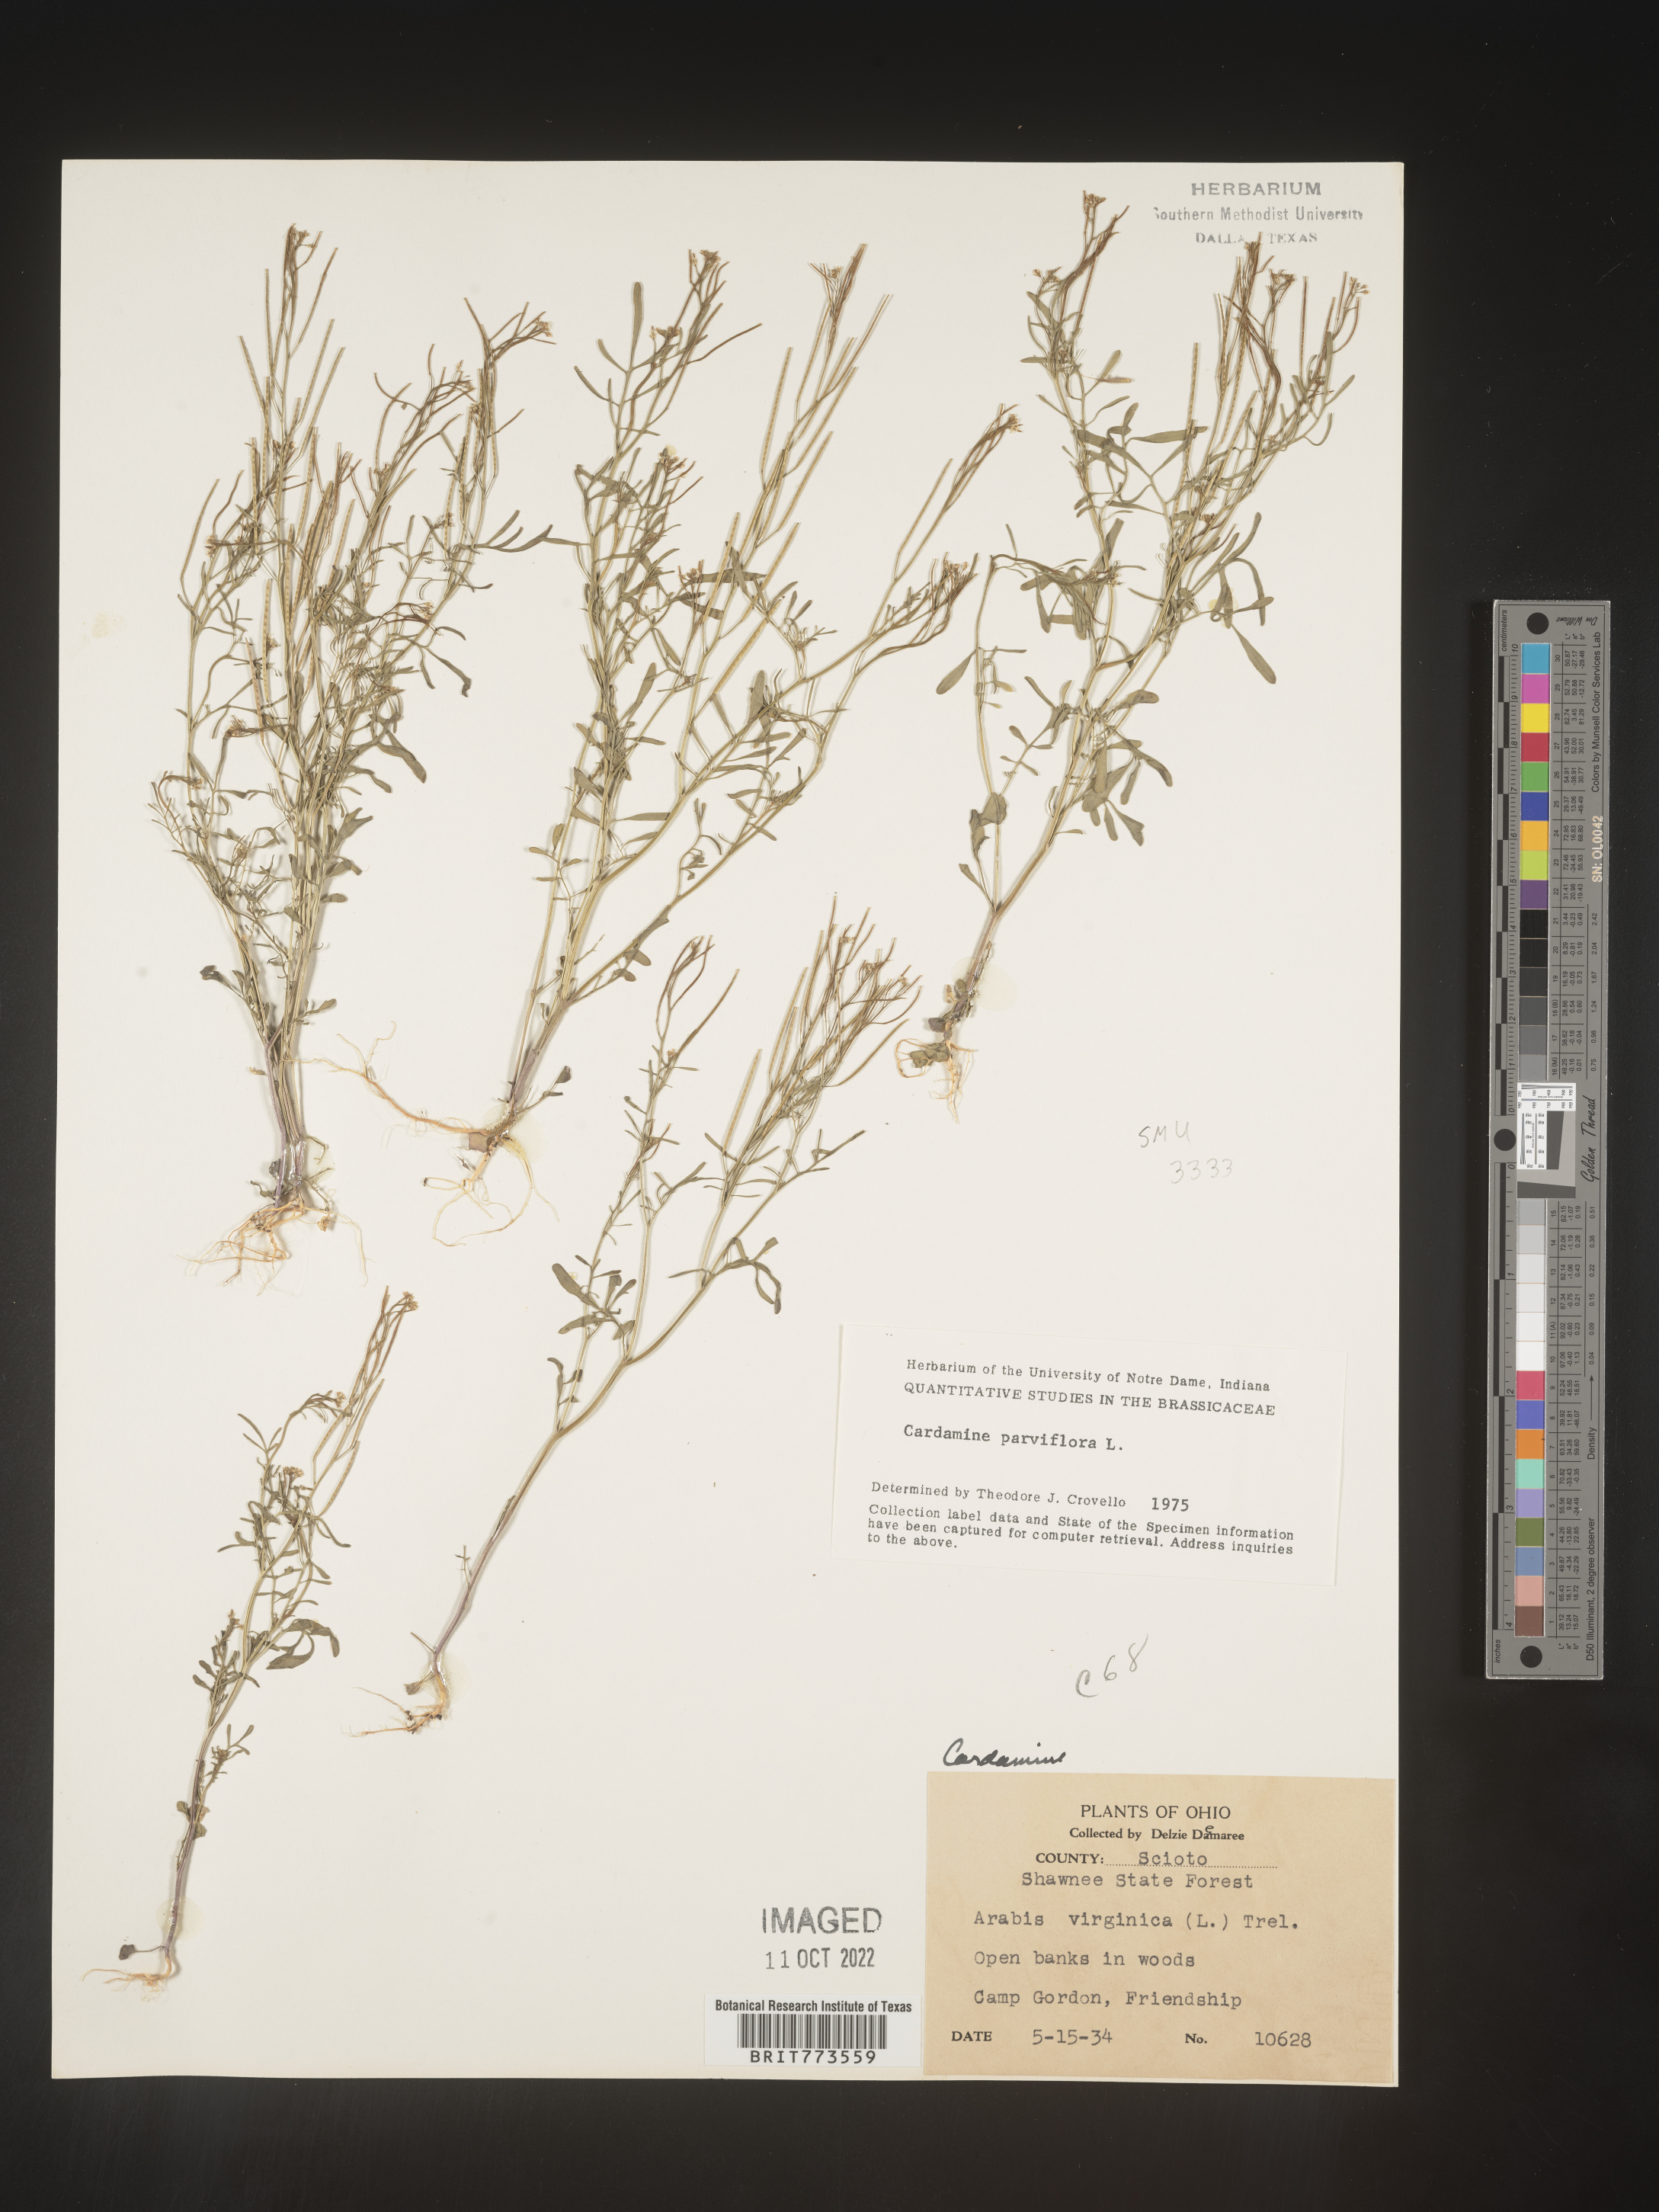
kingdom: Plantae
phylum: Tracheophyta
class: Magnoliopsida
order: Brassicales
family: Brassicaceae
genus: Cardamine
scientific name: Cardamine parviflora
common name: Sand bittercress
